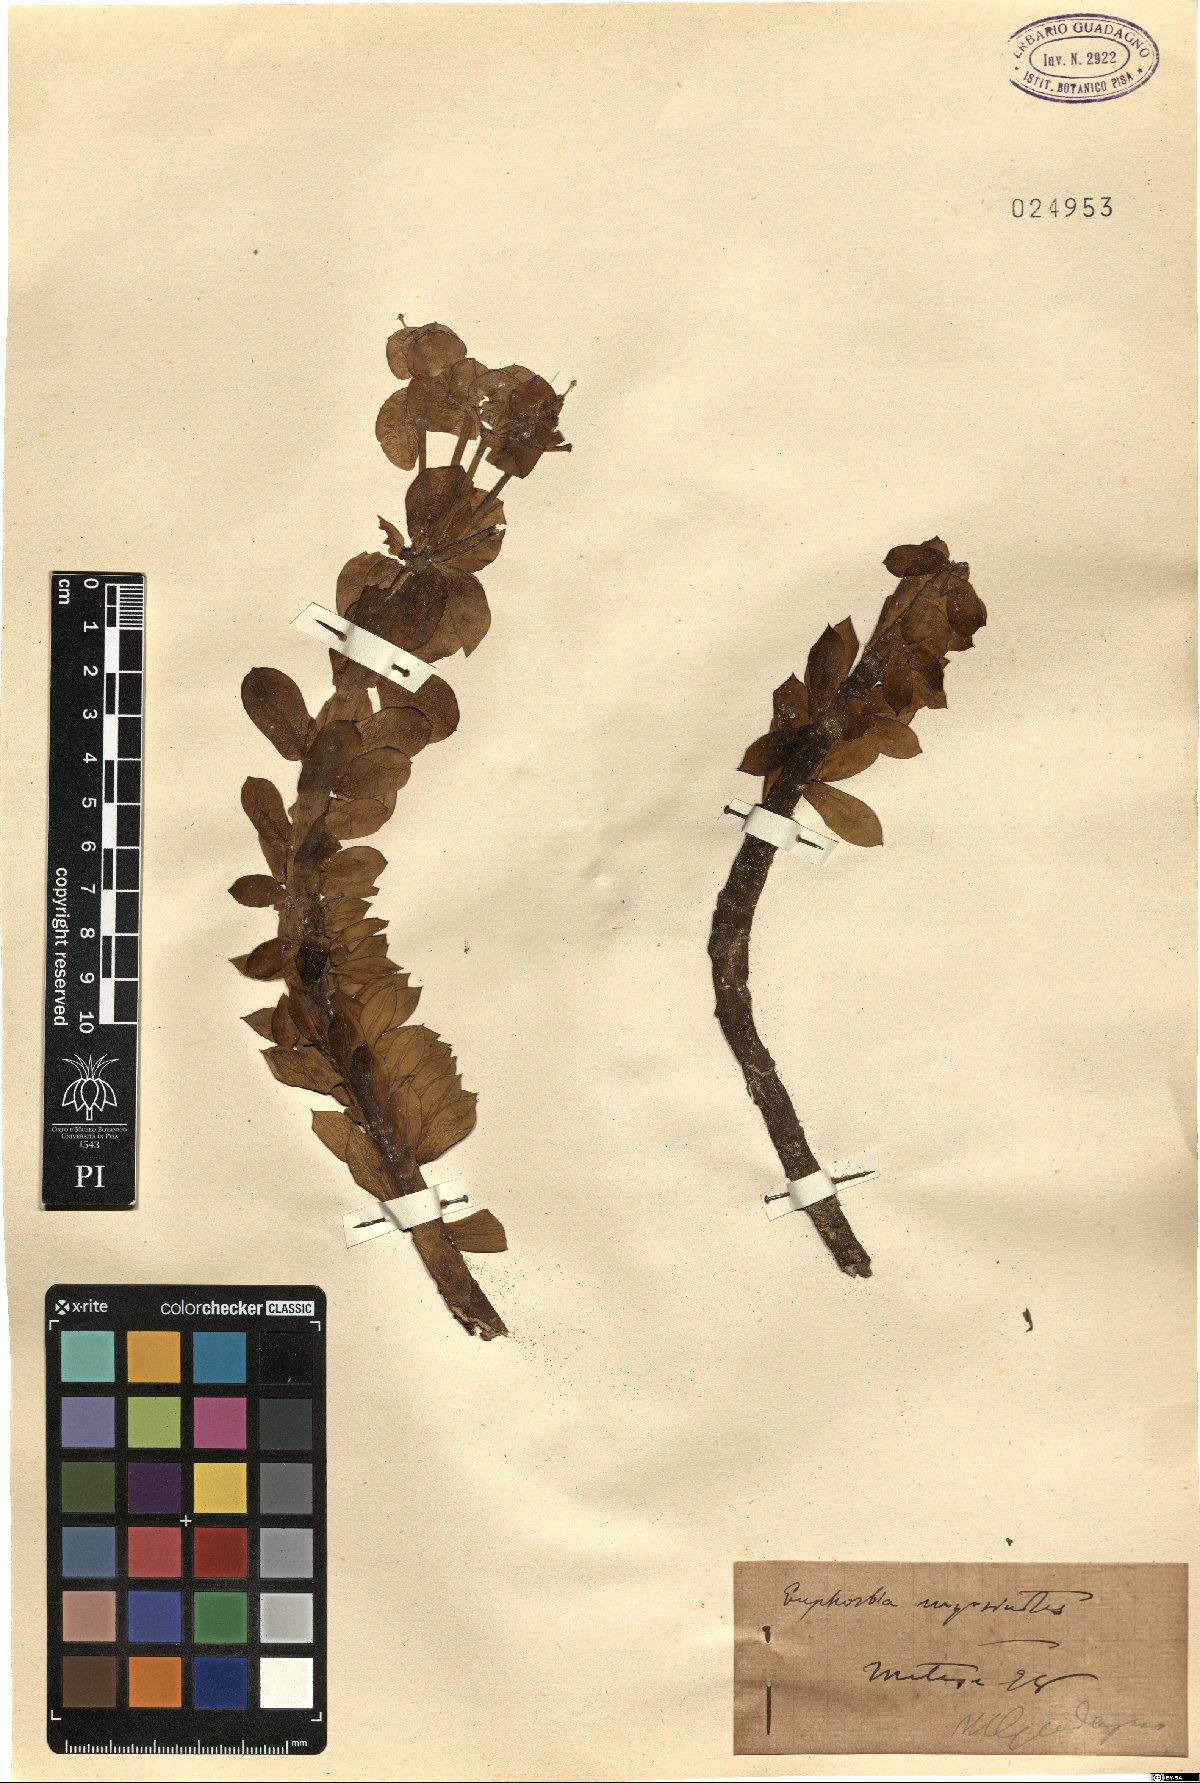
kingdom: Plantae
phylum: Tracheophyta
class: Magnoliopsida
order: Malpighiales
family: Euphorbiaceae
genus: Euphorbia
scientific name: Euphorbia myrsinites
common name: Myrtle spurge
